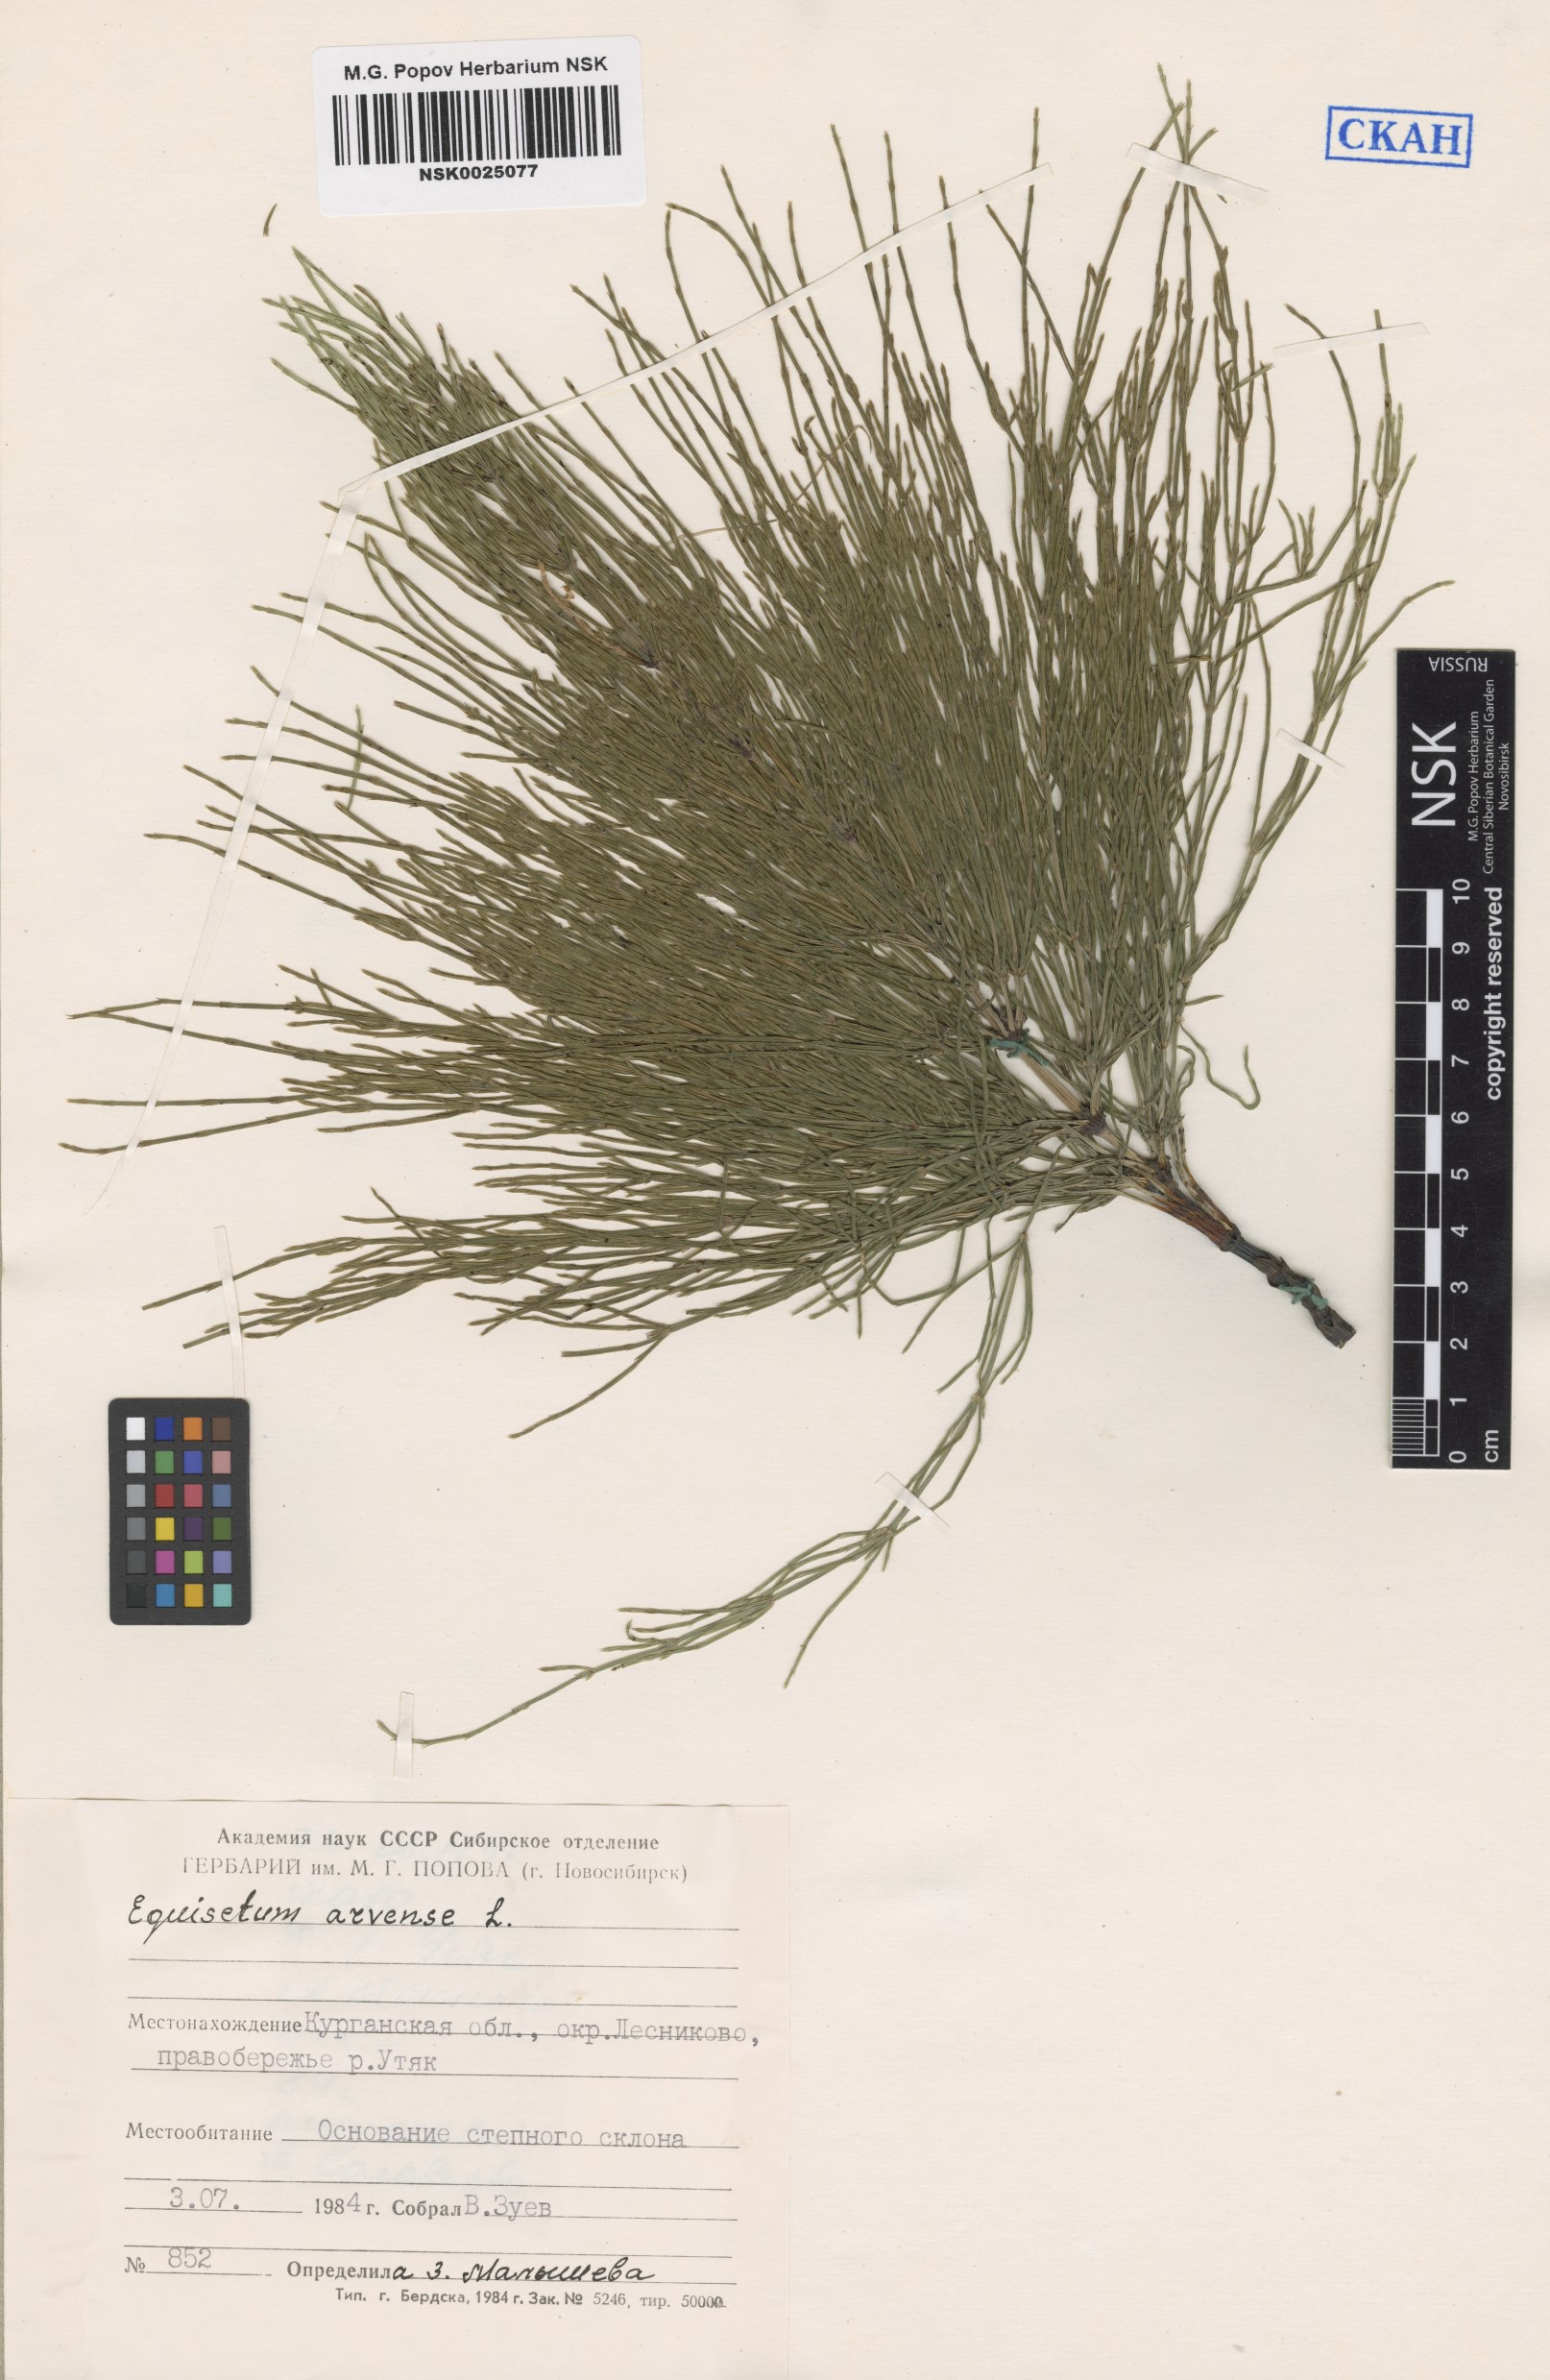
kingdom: Plantae
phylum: Tracheophyta
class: Polypodiopsida
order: Equisetales
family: Equisetaceae
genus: Equisetum
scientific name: Equisetum arvense
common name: Field horsetail
